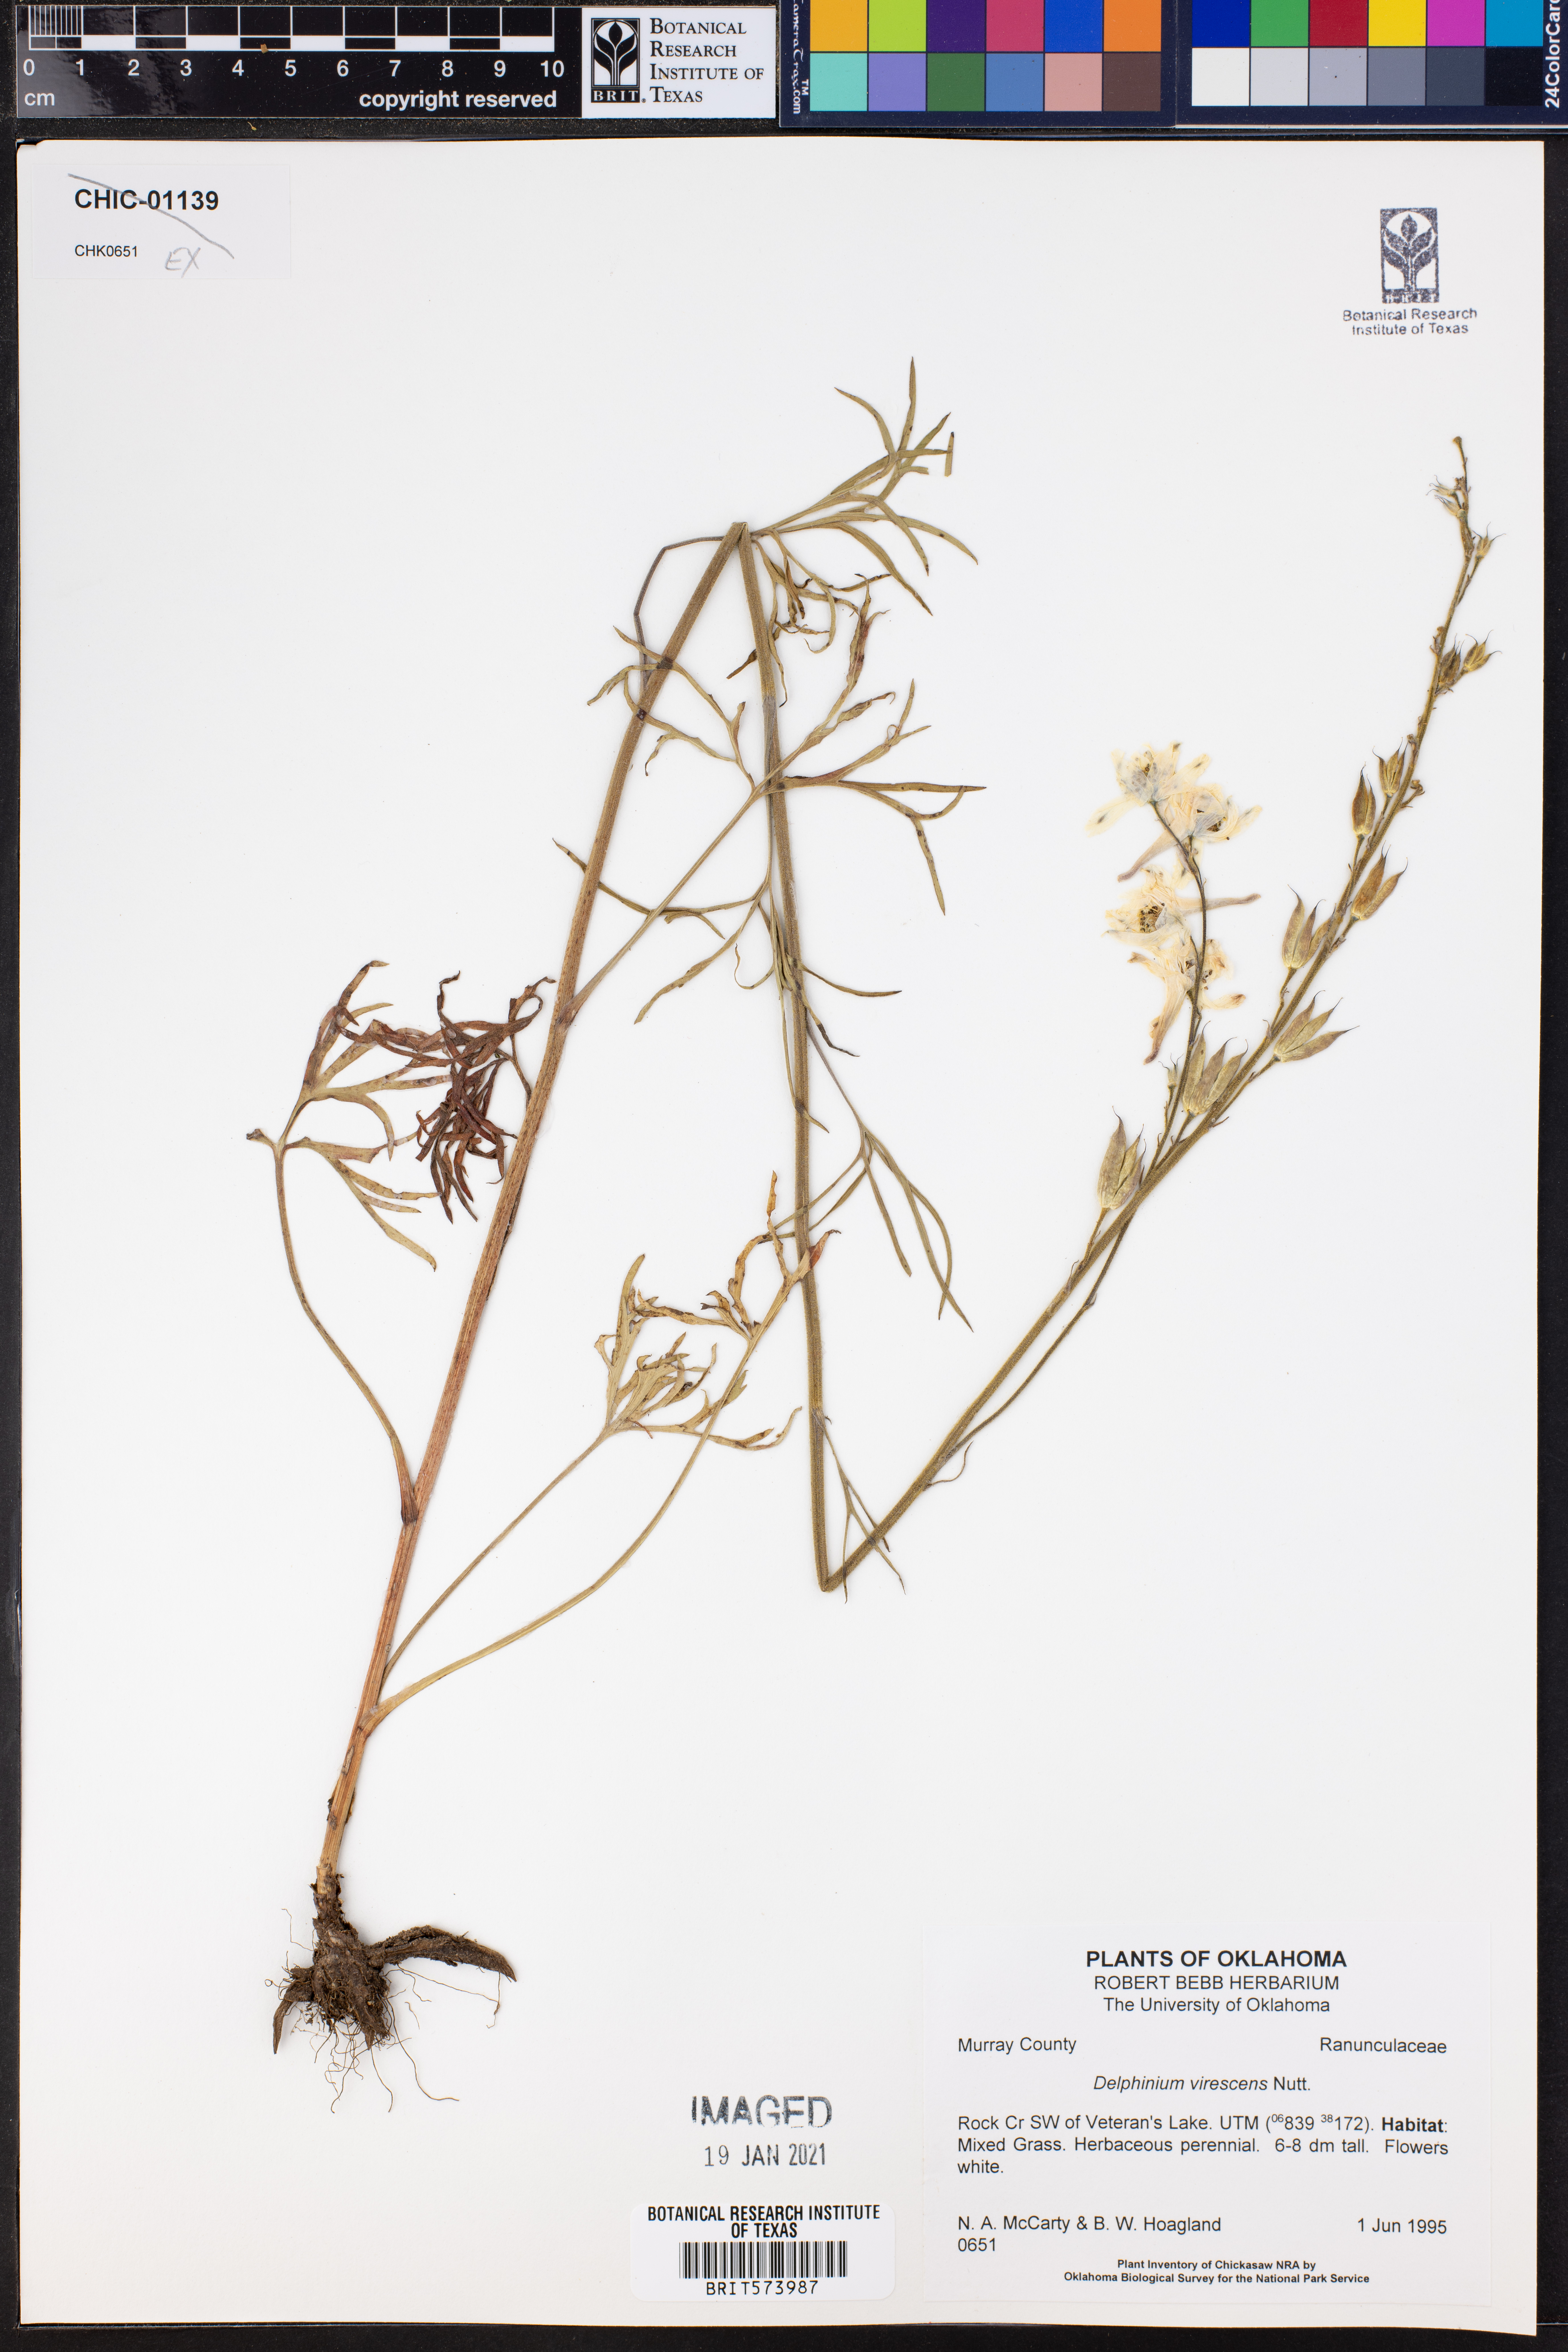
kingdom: Plantae
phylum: Tracheophyta
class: Magnoliopsida
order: Ranunculales
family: Ranunculaceae
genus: Delphinium
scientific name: Delphinium carolinianum
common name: Carolina larkspur
